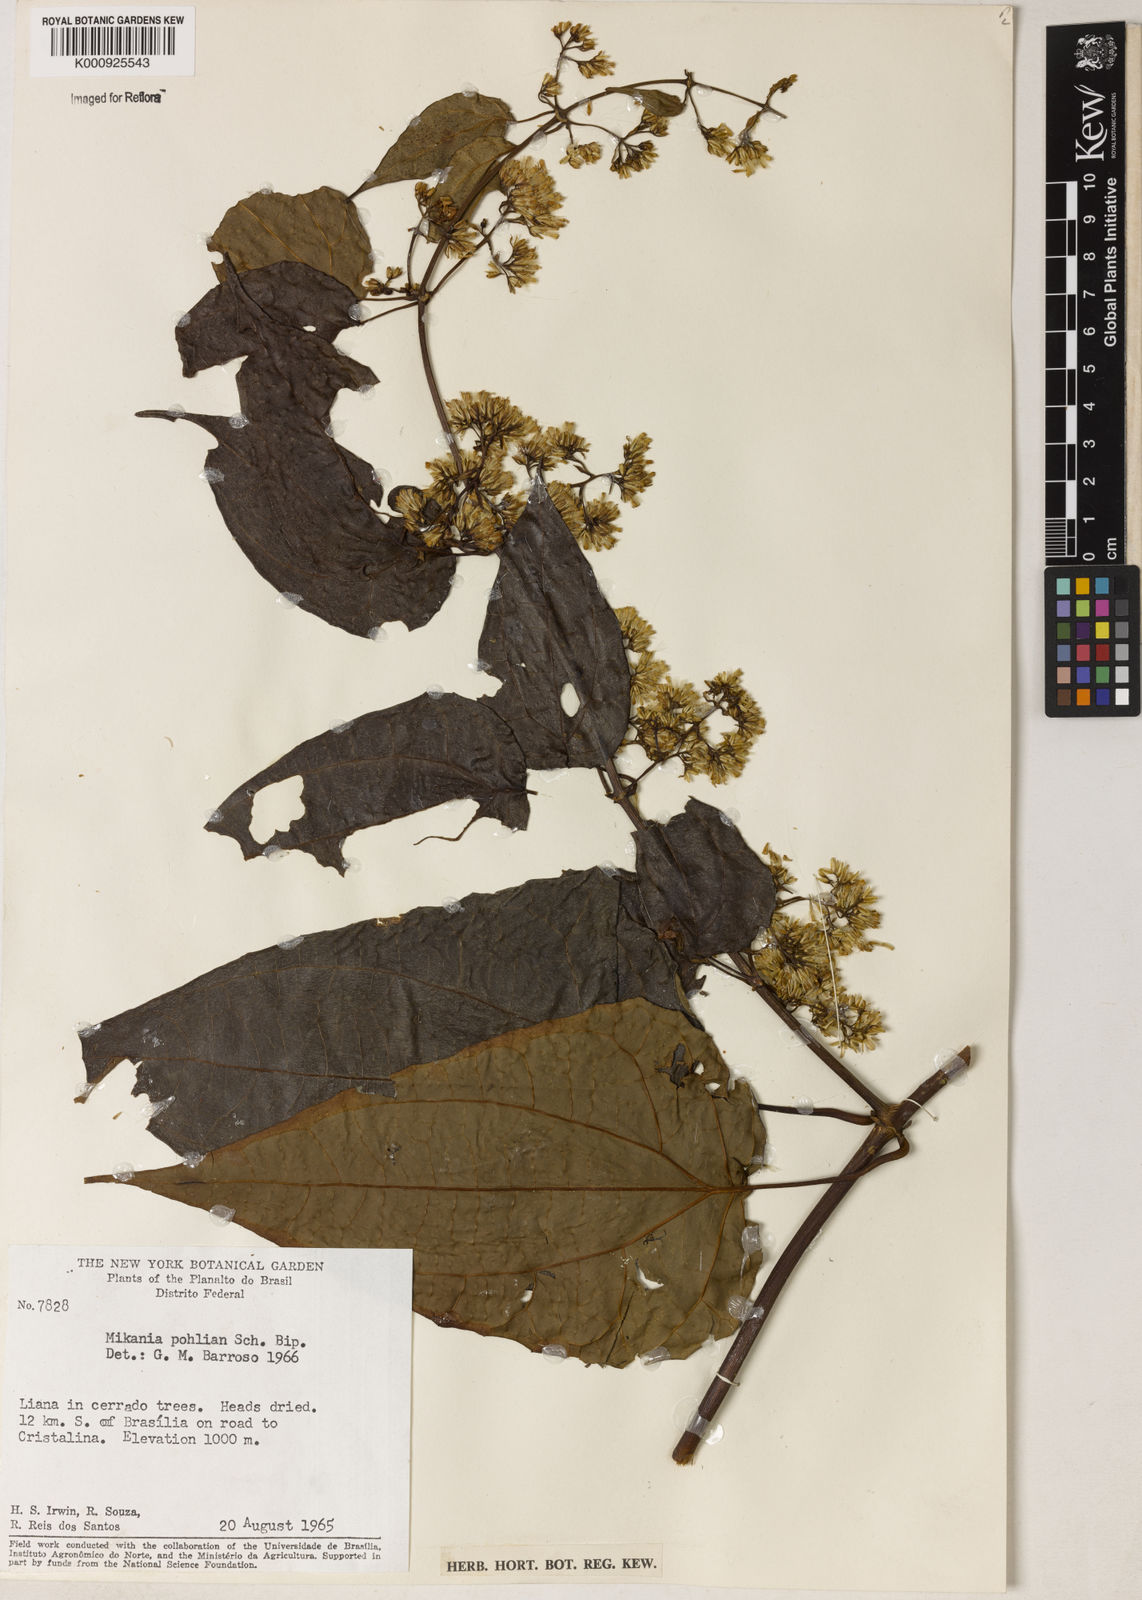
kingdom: Plantae
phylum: Tracheophyta
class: Magnoliopsida
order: Asterales
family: Asteraceae
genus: Mikania
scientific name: Mikania
